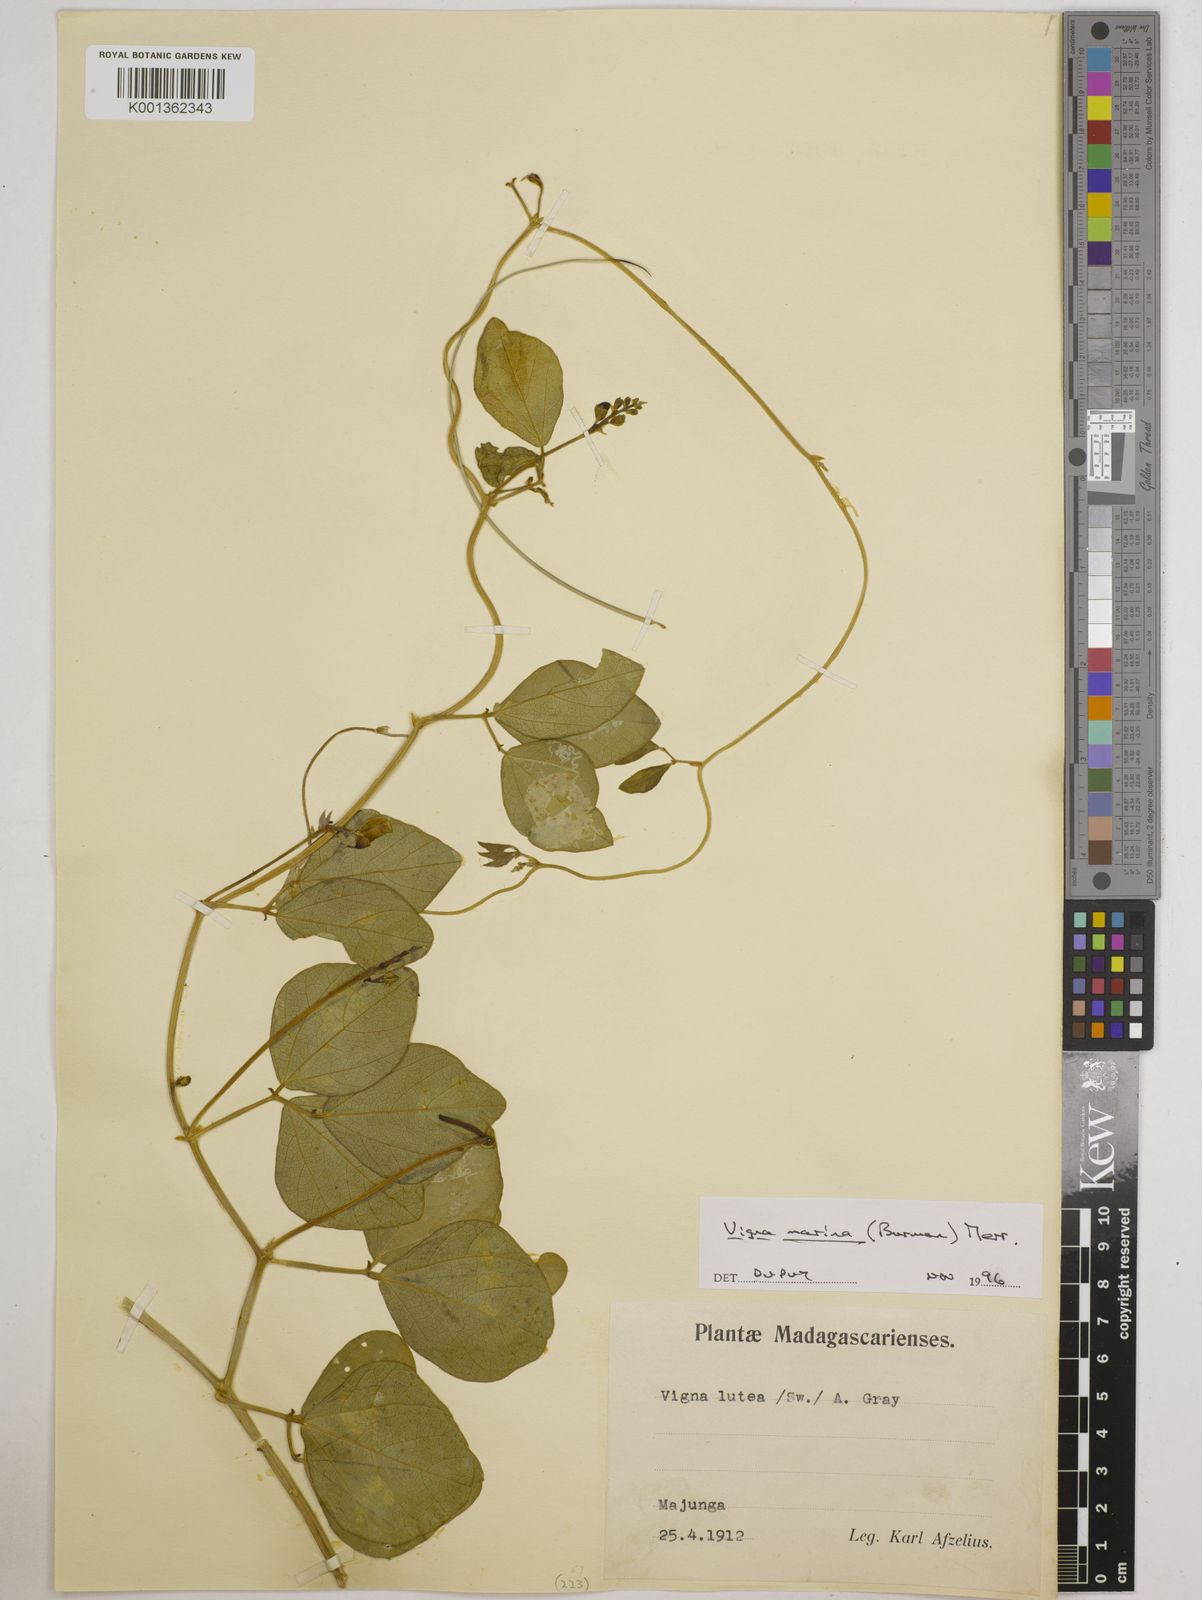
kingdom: Plantae
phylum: Tracheophyta
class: Magnoliopsida
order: Fabales
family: Fabaceae
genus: Vigna
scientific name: Vigna marina
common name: Dune-bean
